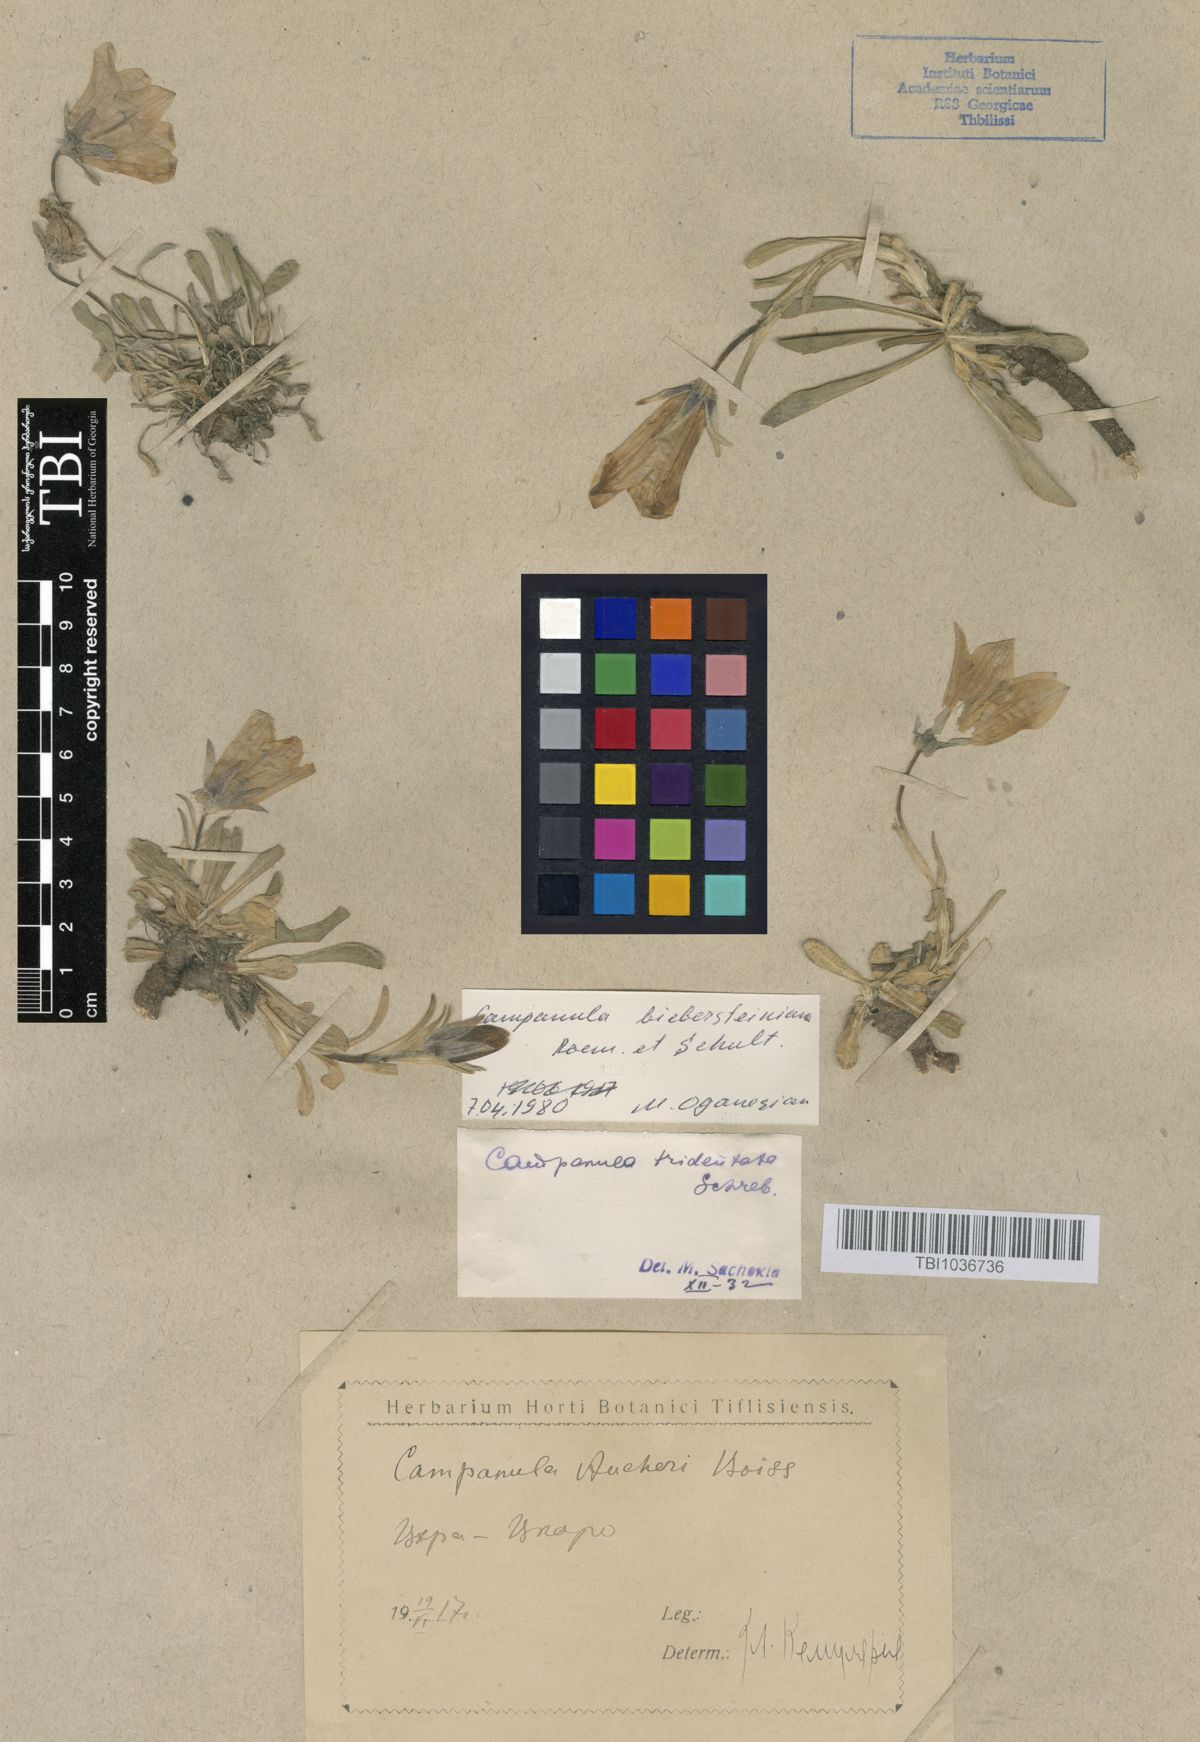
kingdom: Plantae
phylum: Tracheophyta
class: Magnoliopsida
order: Asterales
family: Campanulaceae
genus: Campanula
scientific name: Campanula tridentata
